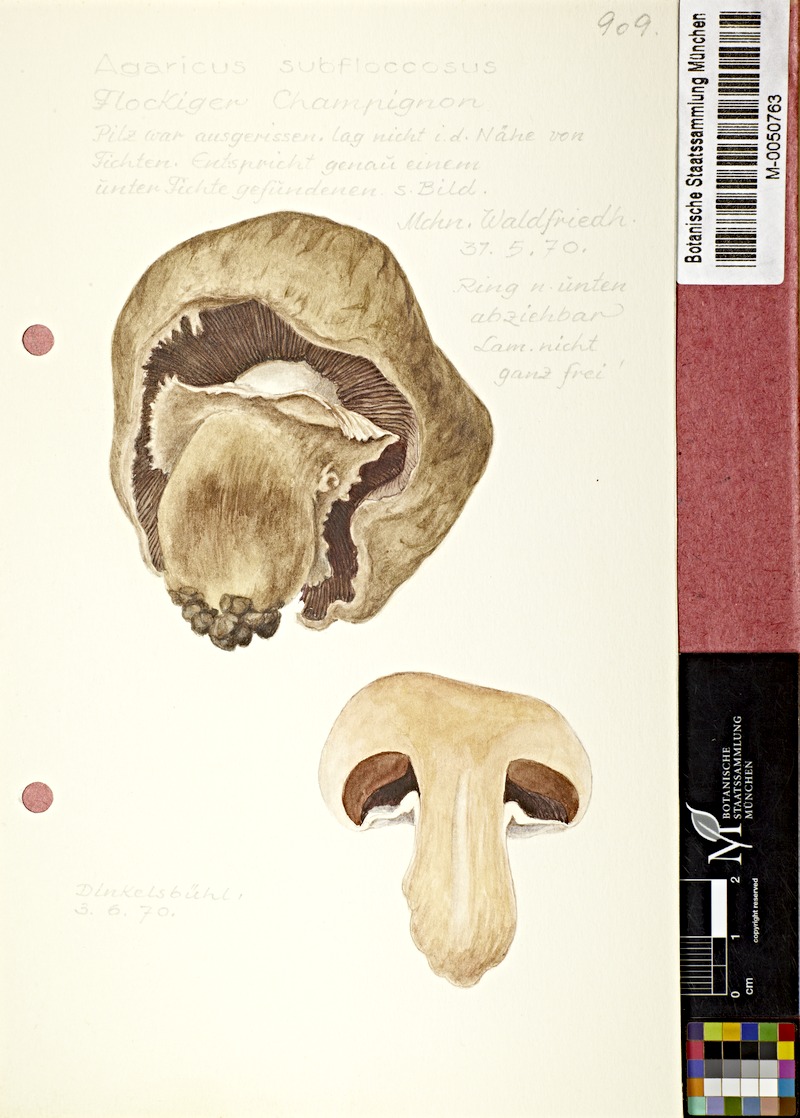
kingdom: Fungi
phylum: Basidiomycota
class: Agaricomycetes
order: Agaricales
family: Agaricaceae
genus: Agaricus
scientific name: Agaricus subfloccosus
